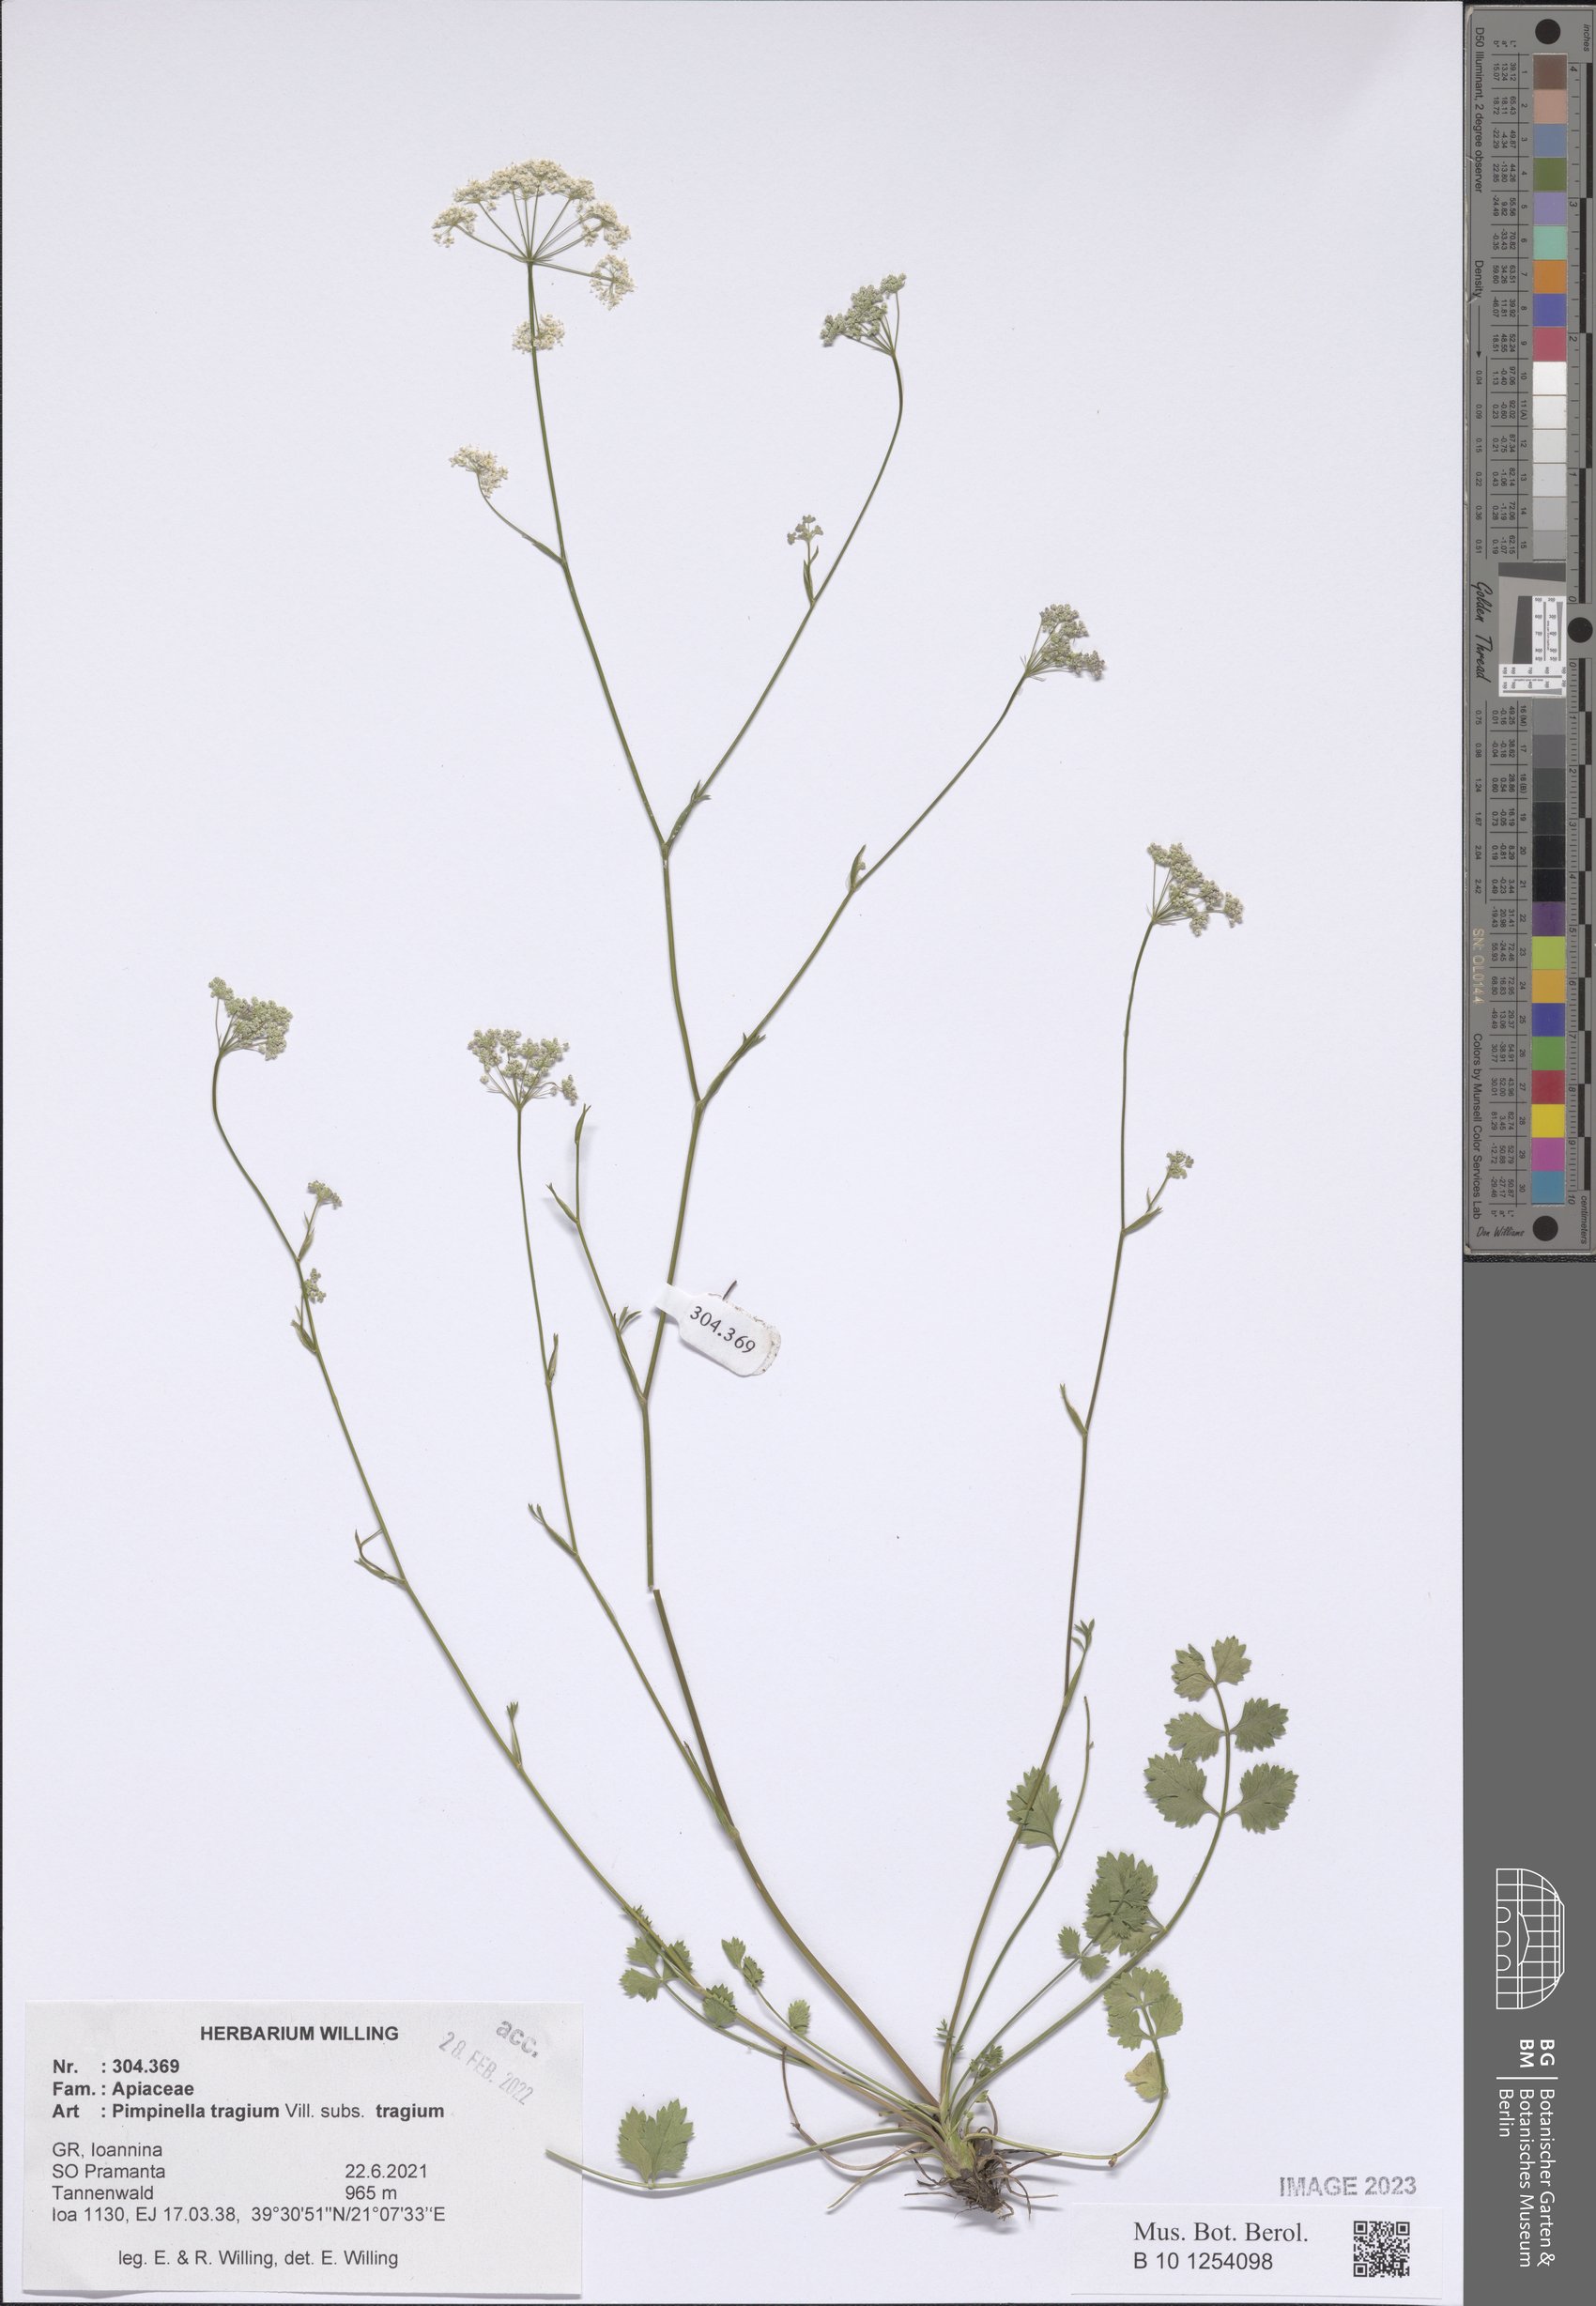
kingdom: Plantae
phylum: Tracheophyta
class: Magnoliopsida
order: Apiales
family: Apiaceae
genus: Pimpinella
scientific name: Pimpinella tragium
